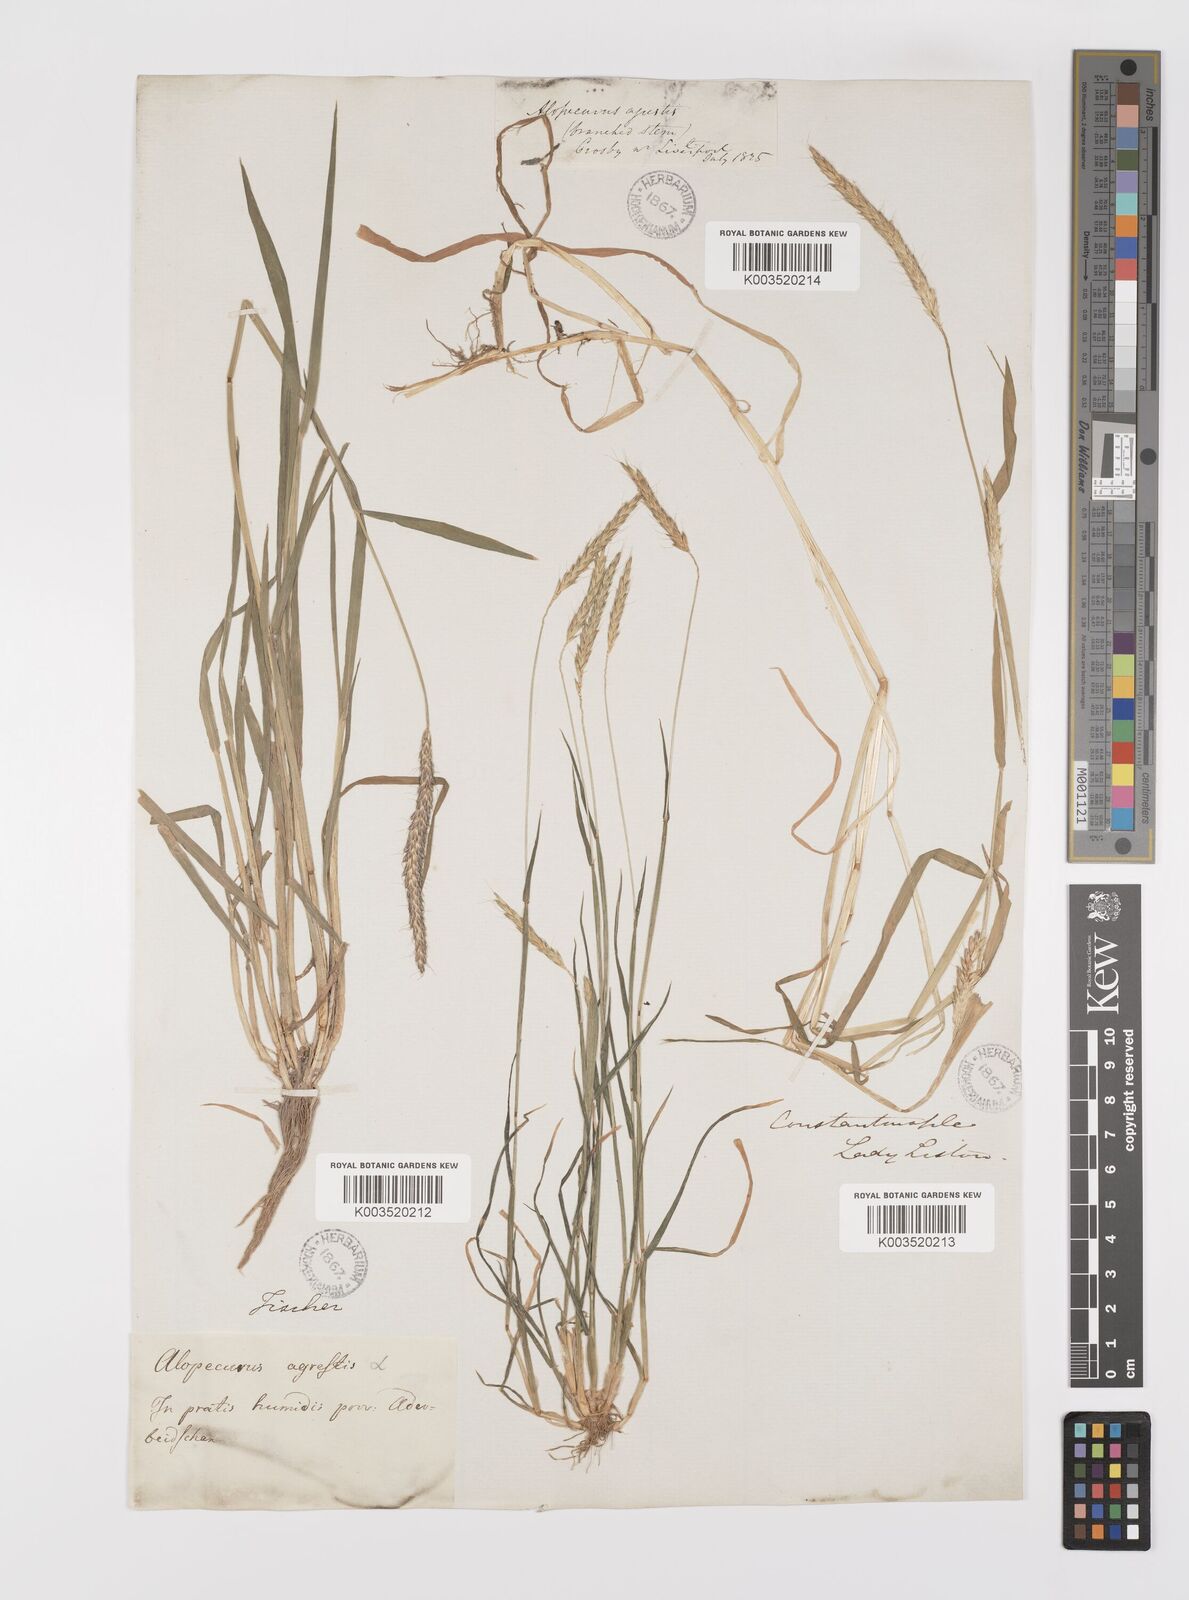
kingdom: Plantae
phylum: Tracheophyta
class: Liliopsida
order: Poales
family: Poaceae
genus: Alopecurus
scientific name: Alopecurus myosuroides
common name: Black-grass
